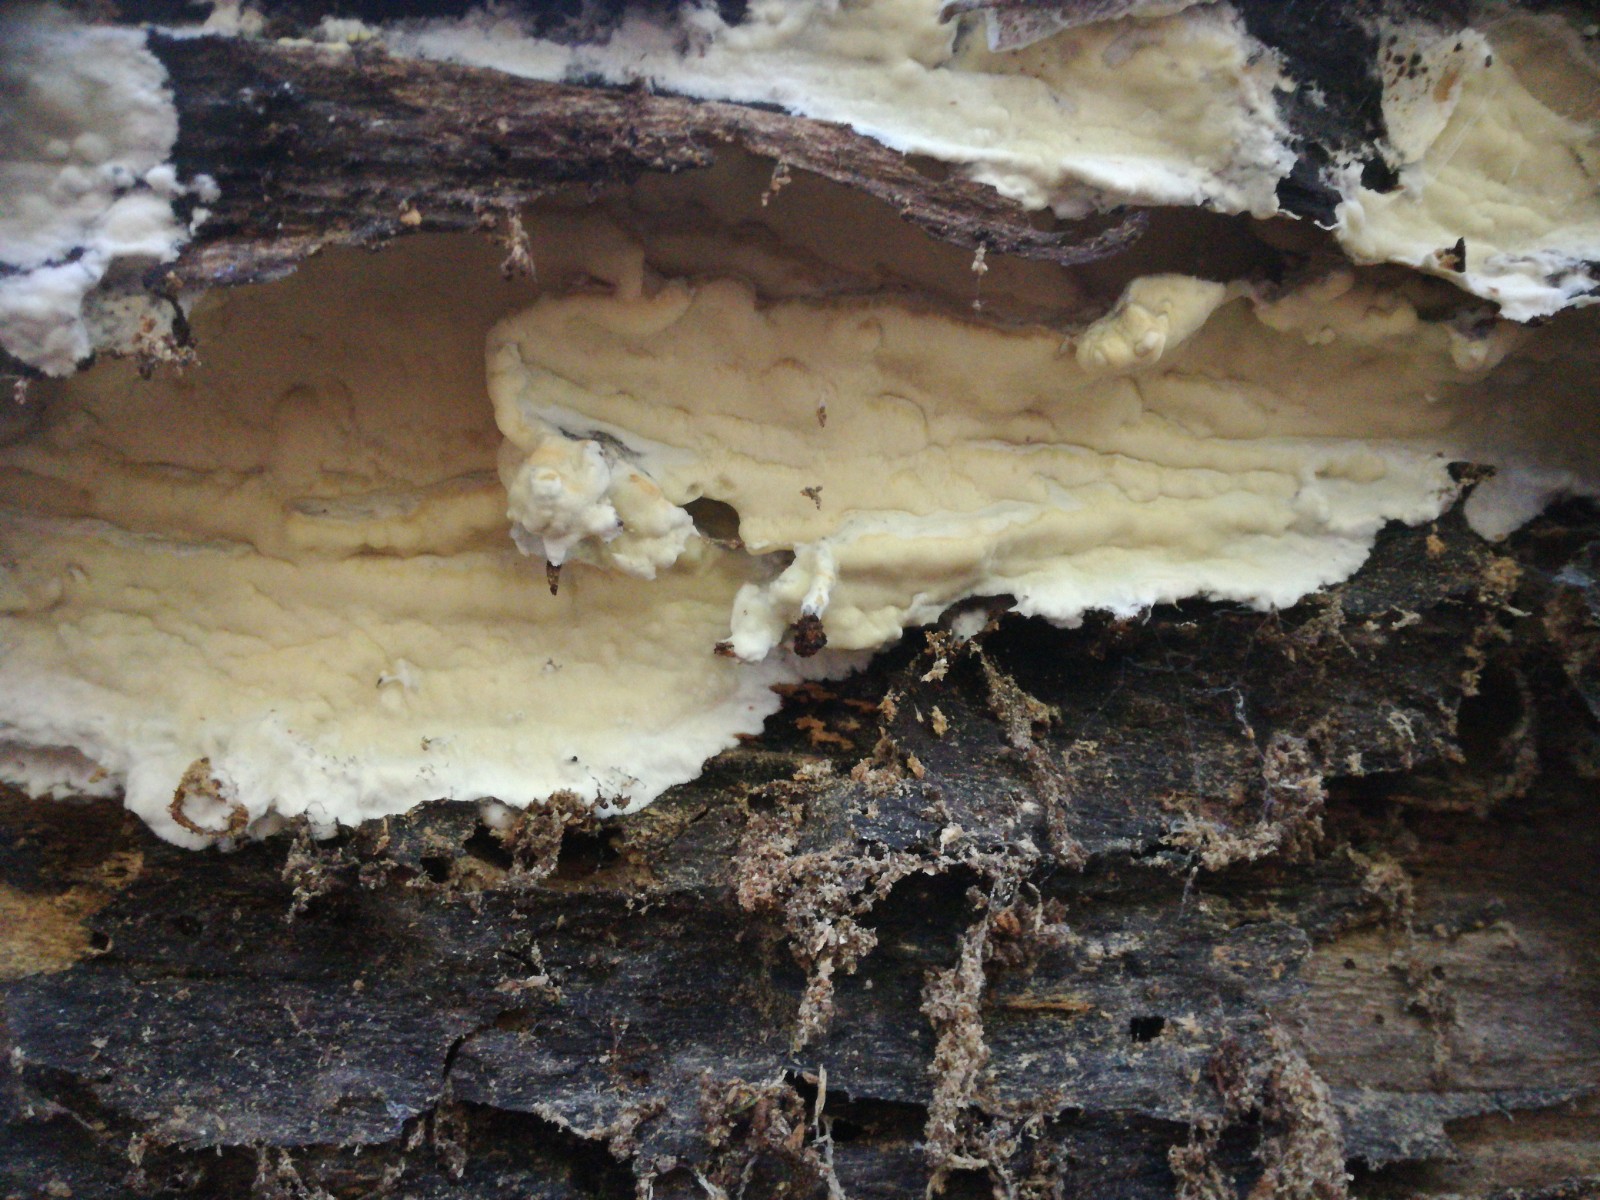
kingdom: Fungi
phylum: Basidiomycota
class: Agaricomycetes
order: Polyporales
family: Irpicaceae
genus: Gloeoporus
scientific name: Gloeoporus pannocinctus
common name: grøngul foldporesvamp
